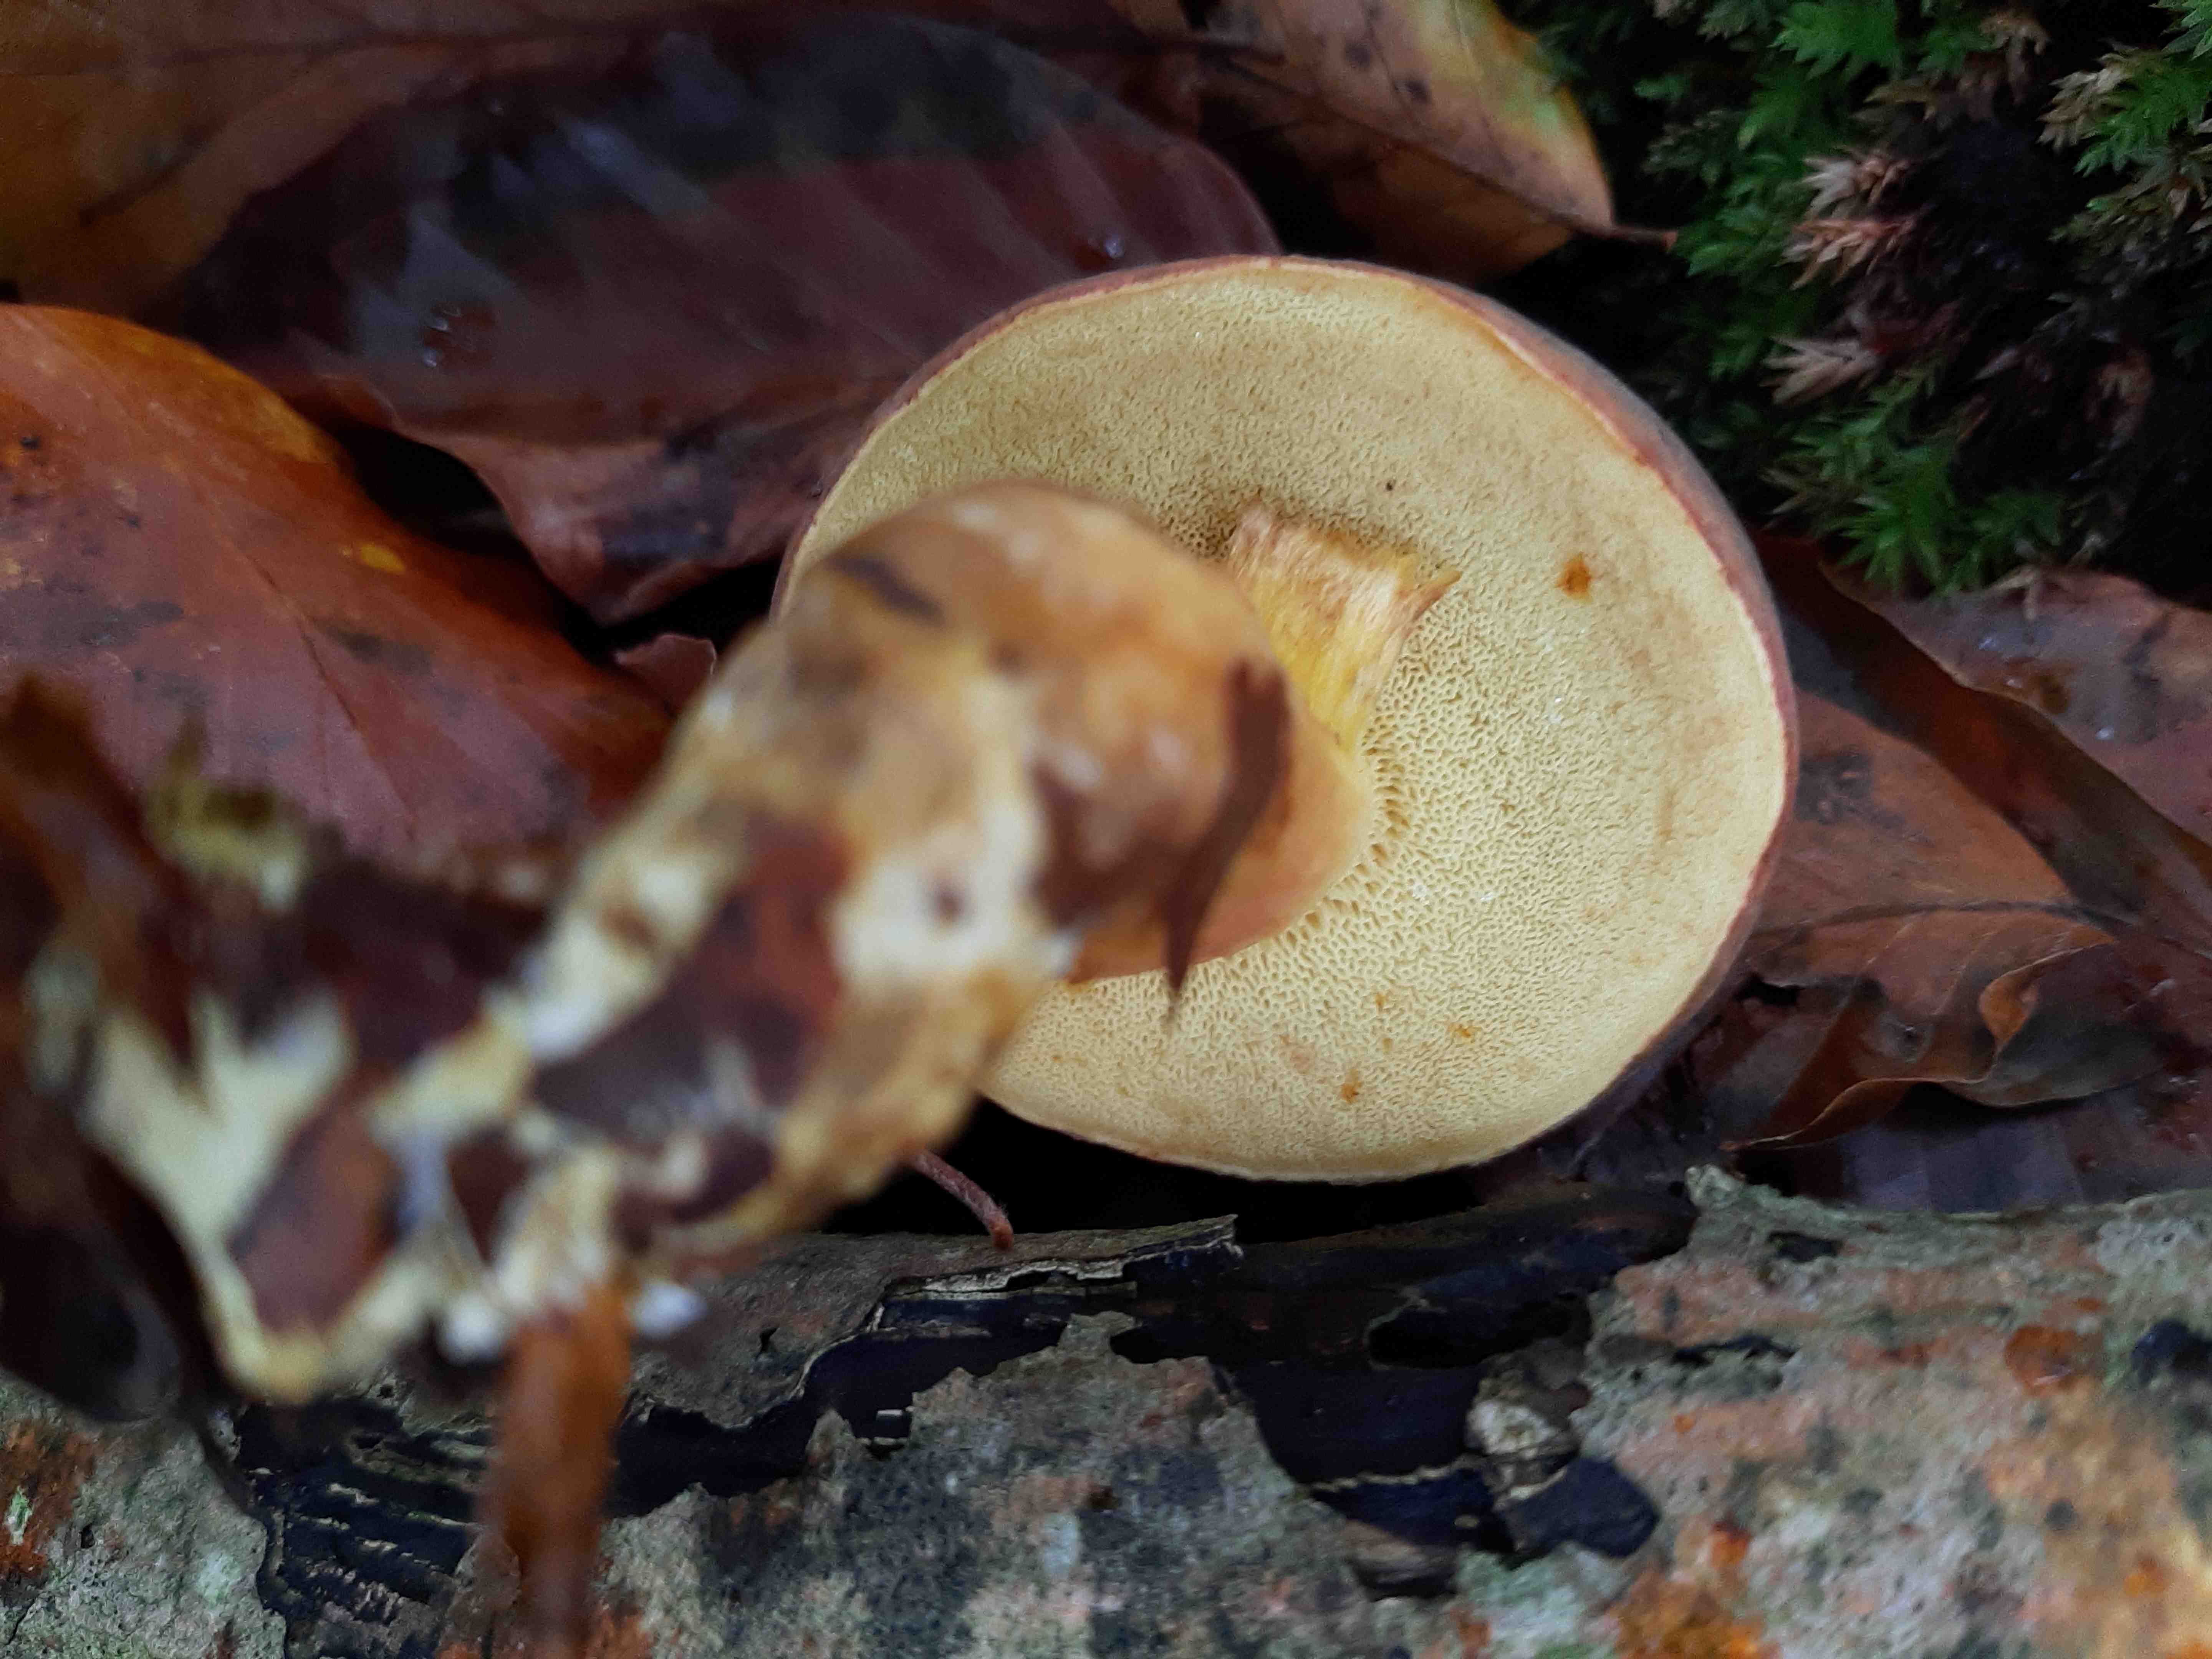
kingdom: Fungi
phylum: Basidiomycota
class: Agaricomycetes
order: Boletales
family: Boletaceae
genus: Xerocomellus
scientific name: Xerocomellus pruinatus
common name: dugget rørhat
